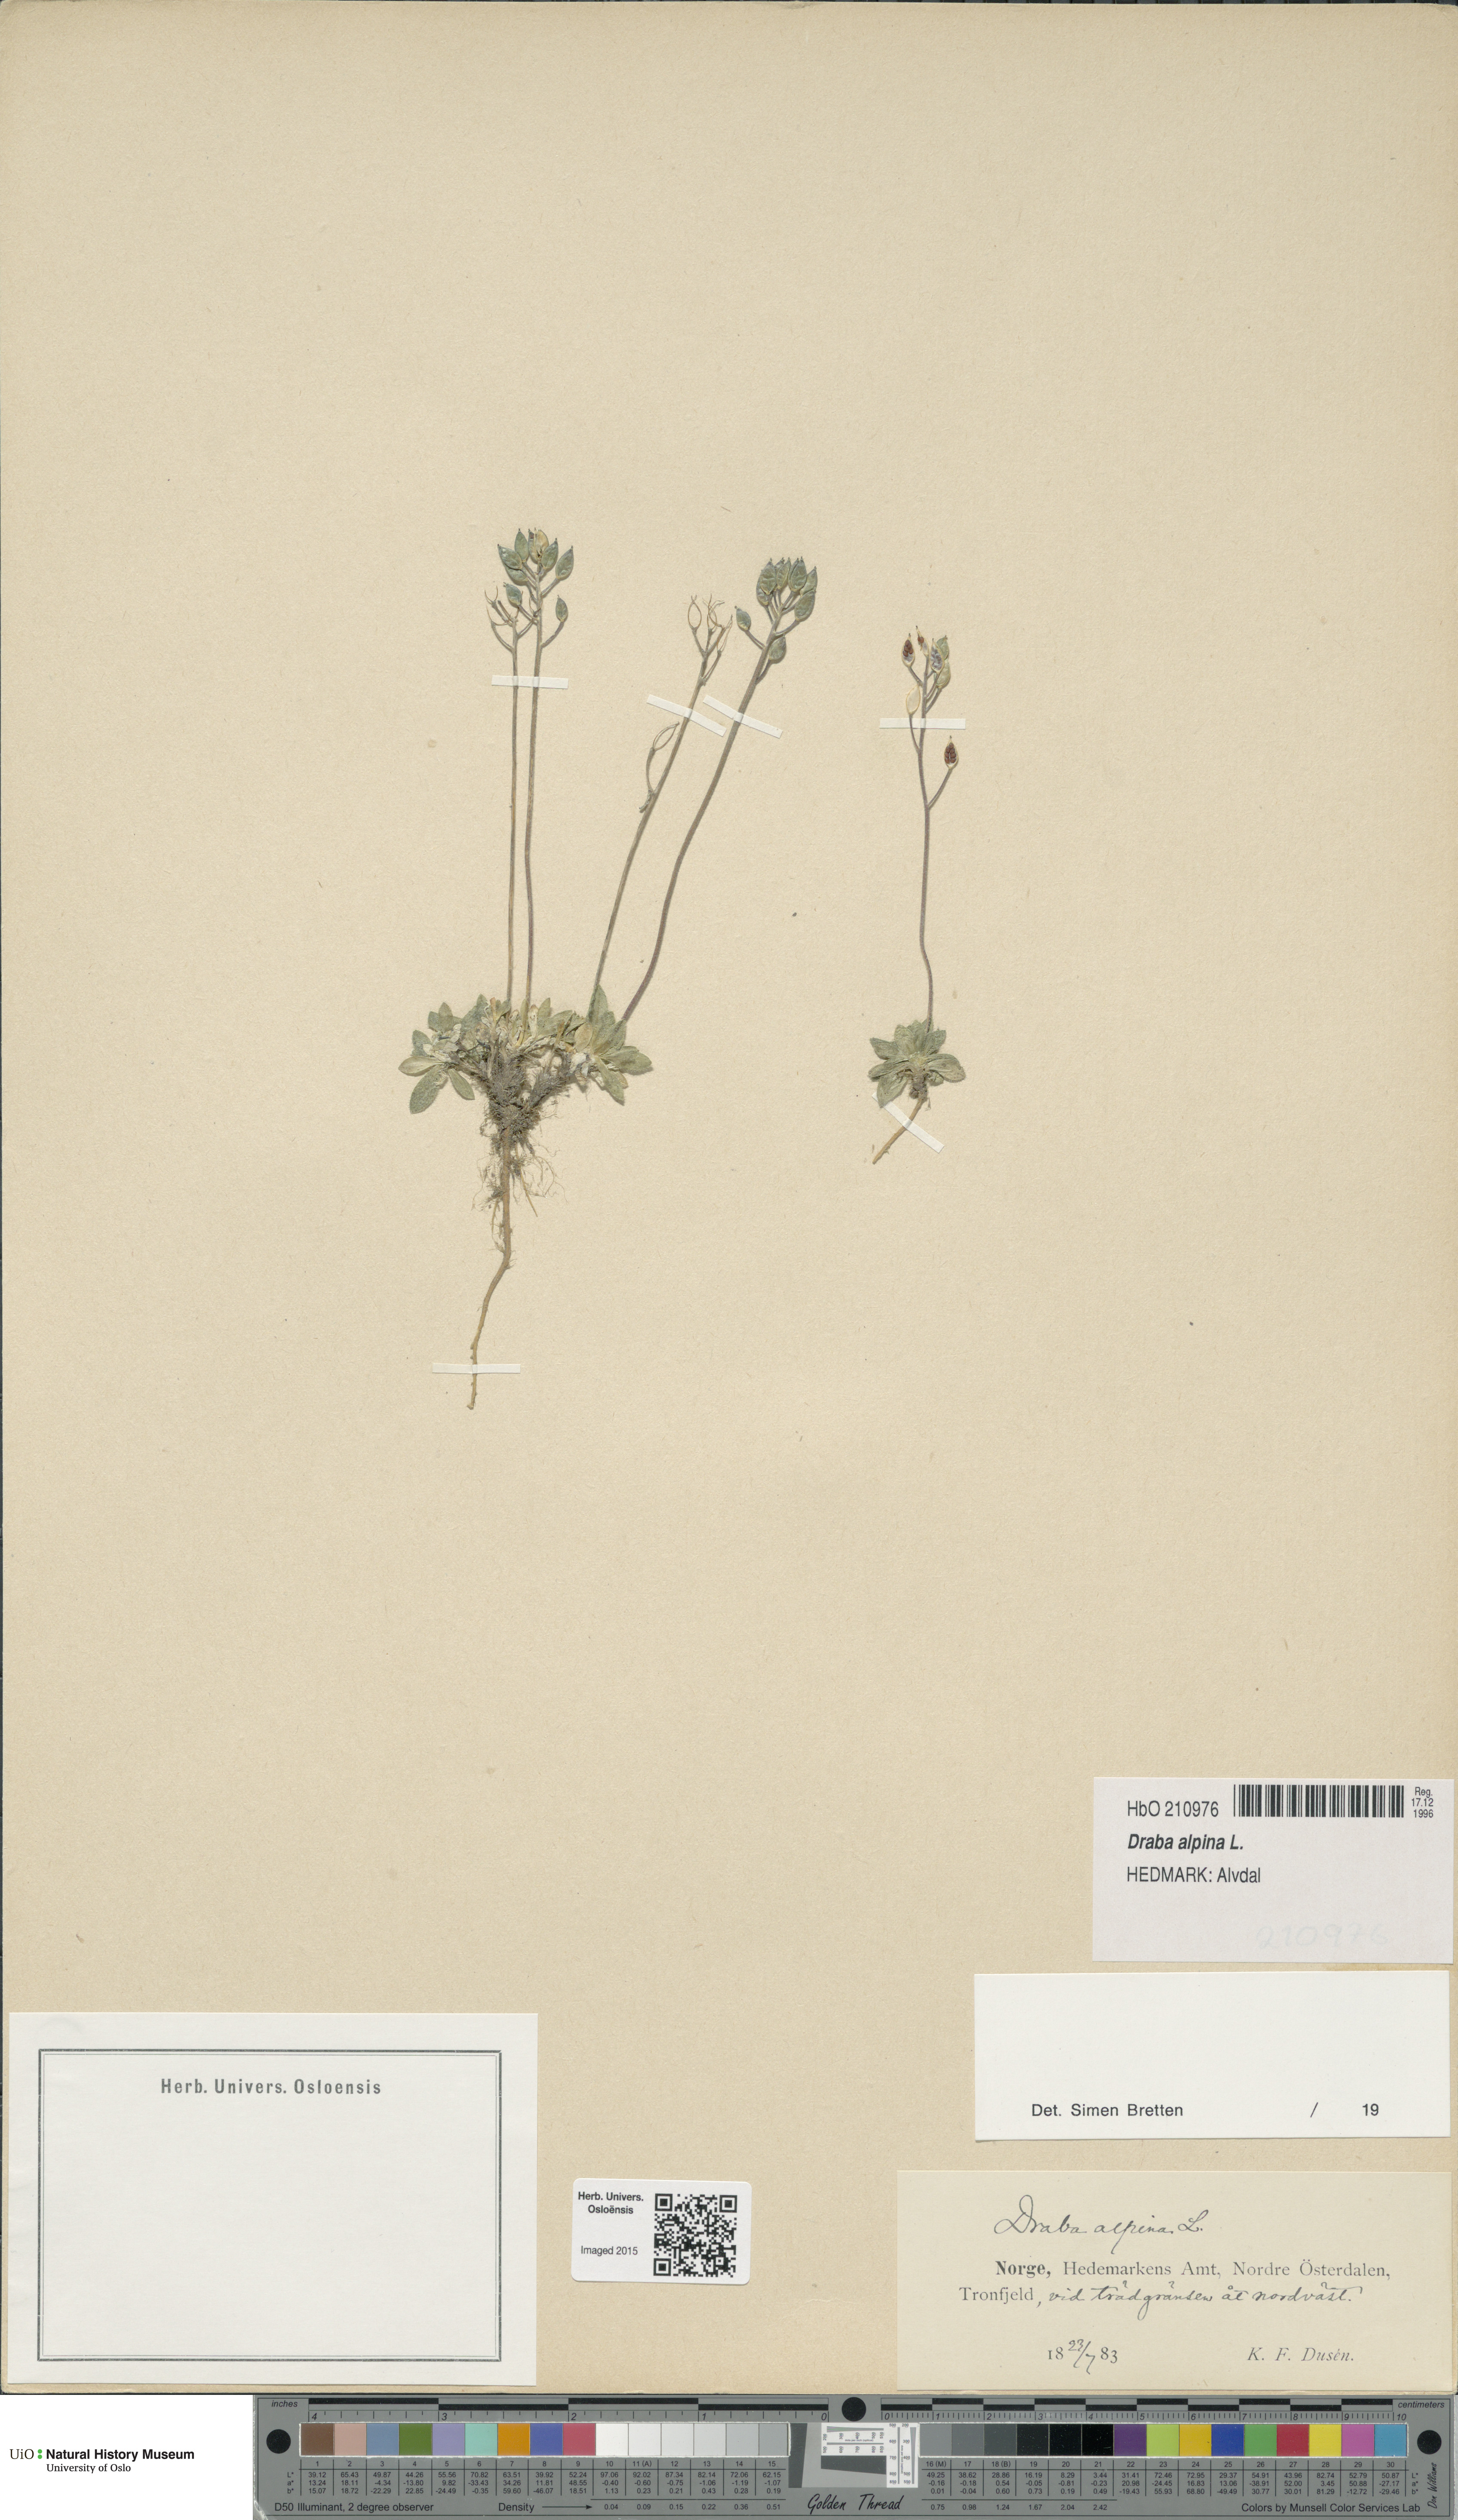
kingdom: Plantae
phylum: Tracheophyta
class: Magnoliopsida
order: Brassicales
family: Brassicaceae
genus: Draba
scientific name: Draba alpina
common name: Alpine draba
